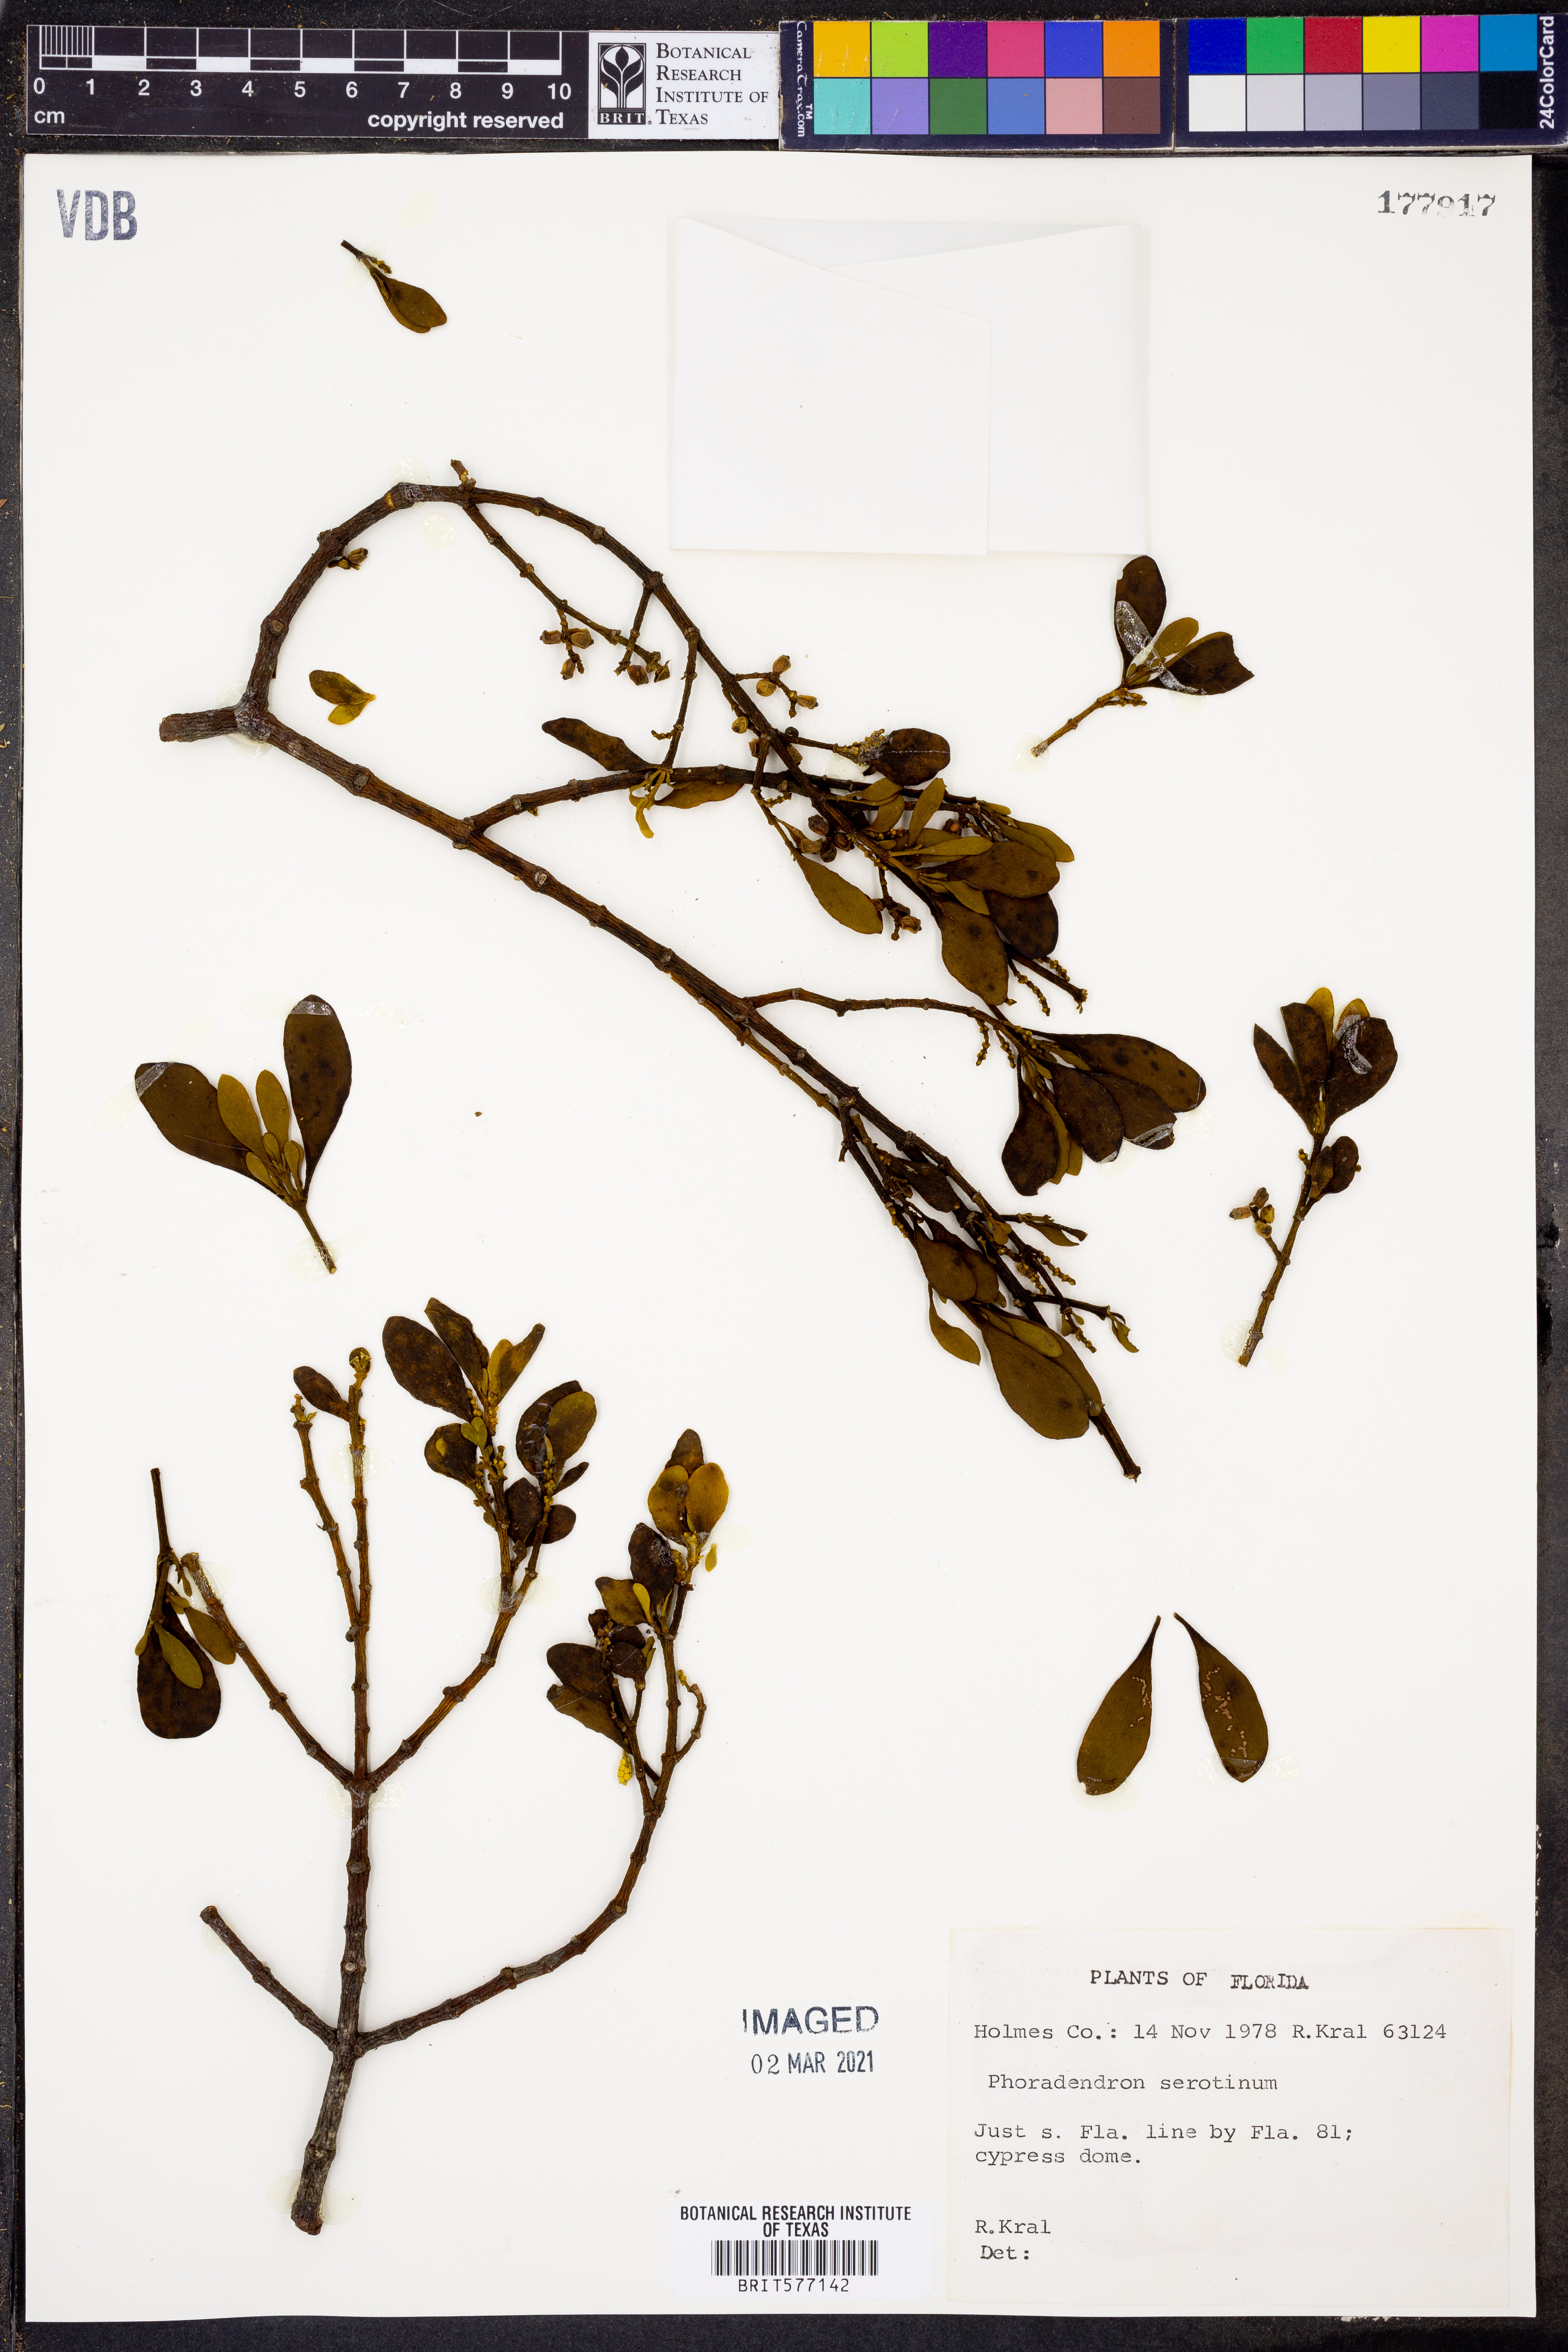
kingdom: Plantae
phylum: Tracheophyta
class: Magnoliopsida
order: Santalales
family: Viscaceae
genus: Phoradendron
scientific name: Phoradendron leucarpum
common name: Pacific mistletoe
